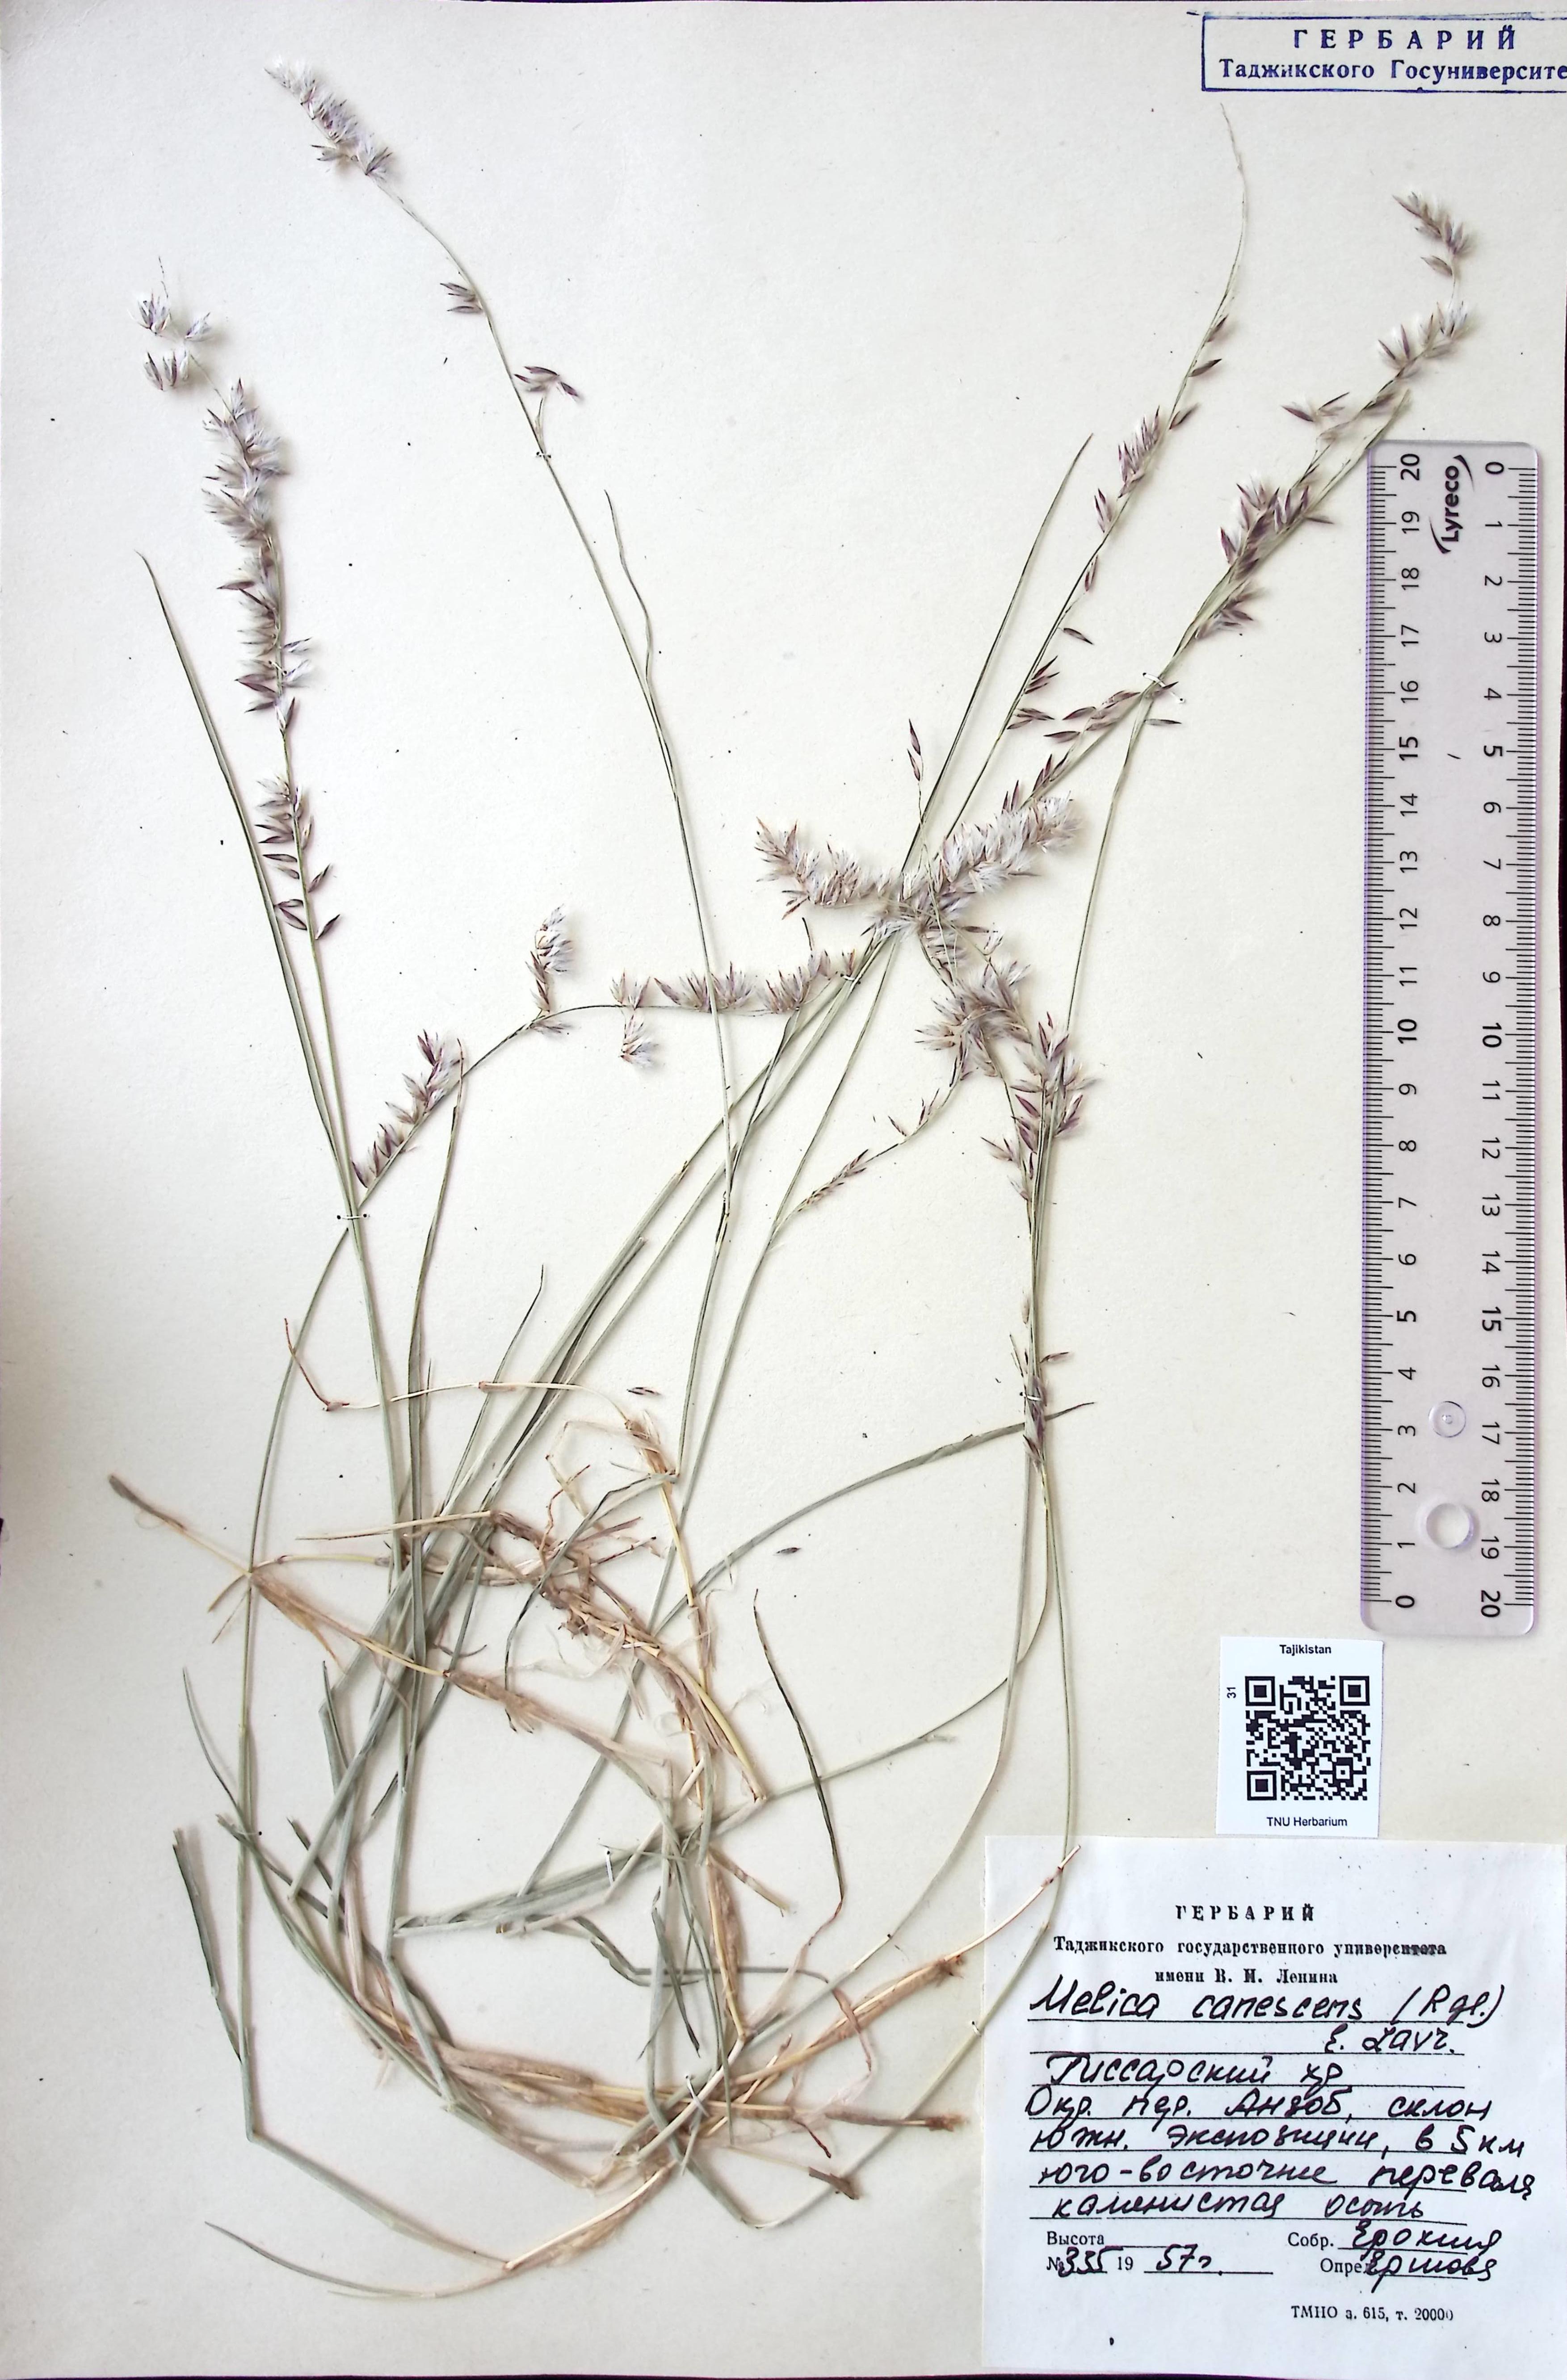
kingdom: Plantae
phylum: Tracheophyta
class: Liliopsida
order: Poales
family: Poaceae
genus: Melica
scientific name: Melica persica
